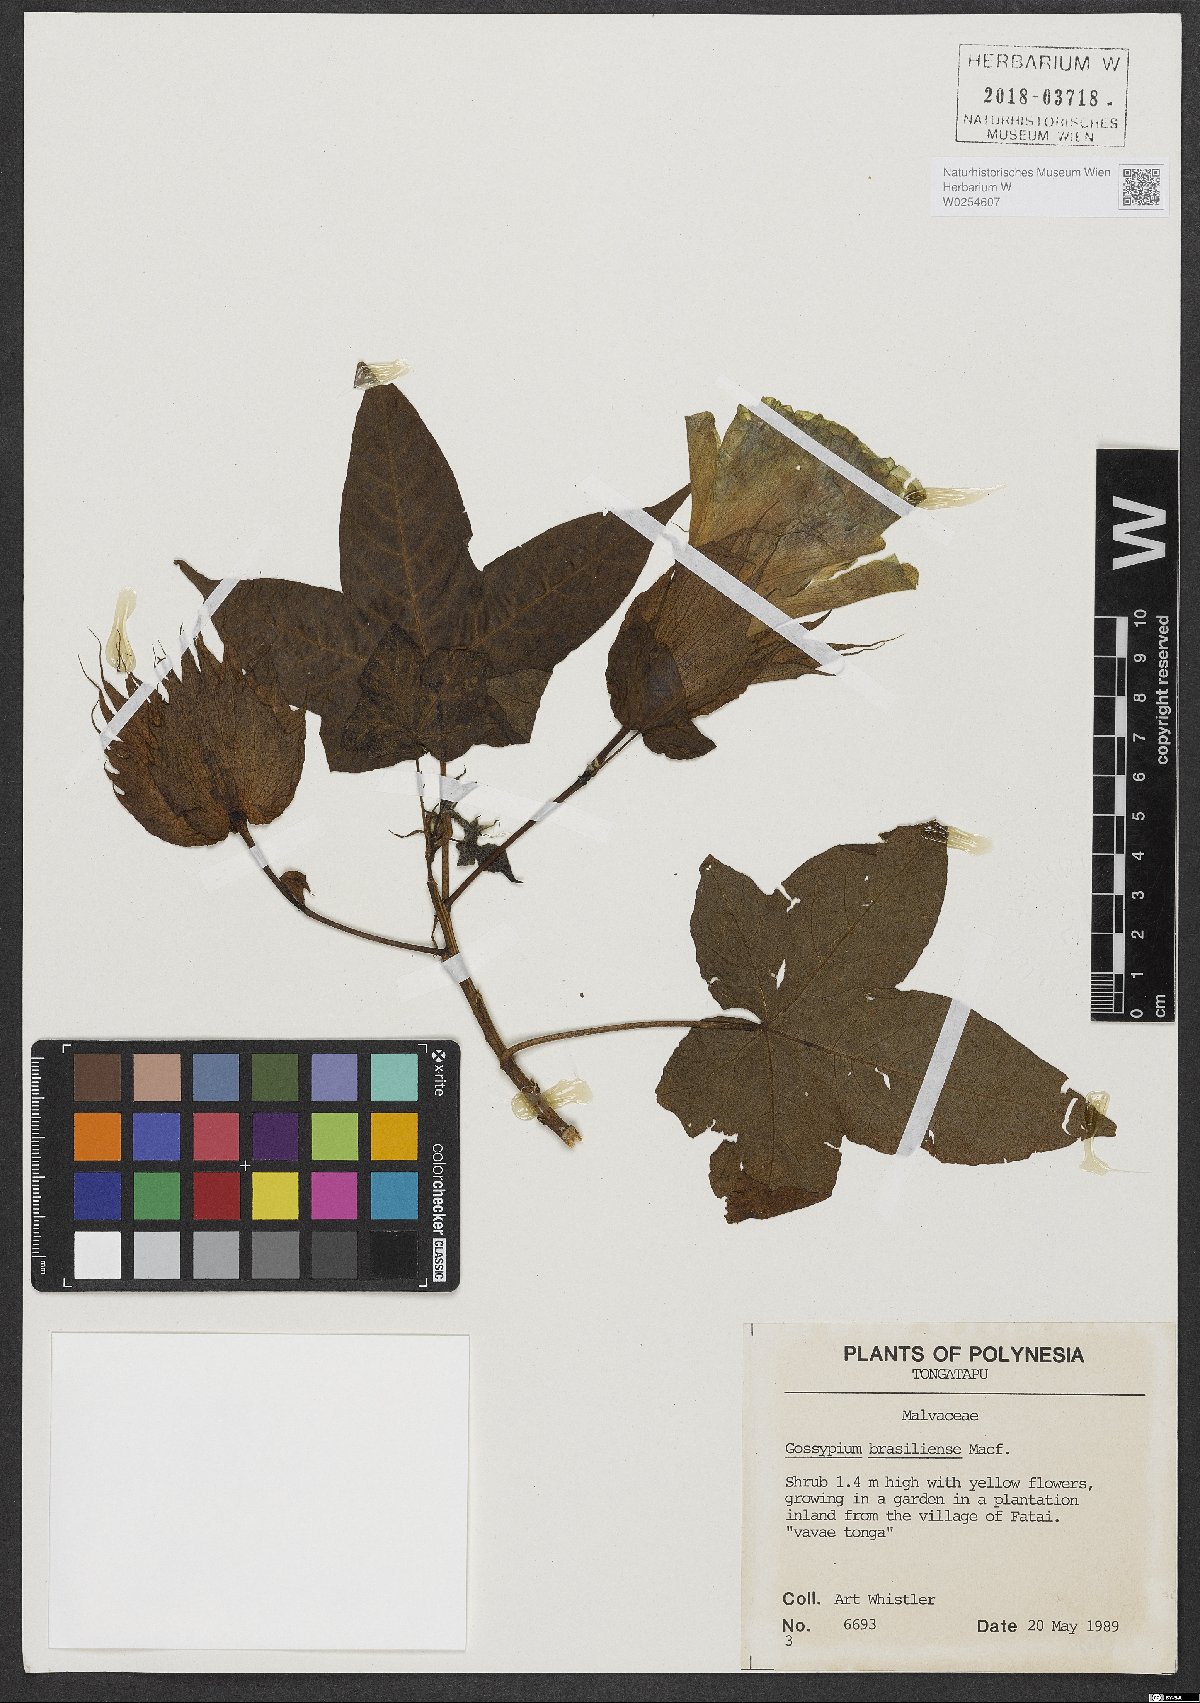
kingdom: Plantae
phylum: Tracheophyta
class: Magnoliopsida
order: Malvales
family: Malvaceae
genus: Gossypium
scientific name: Gossypium barbadense
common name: Creole cotton
